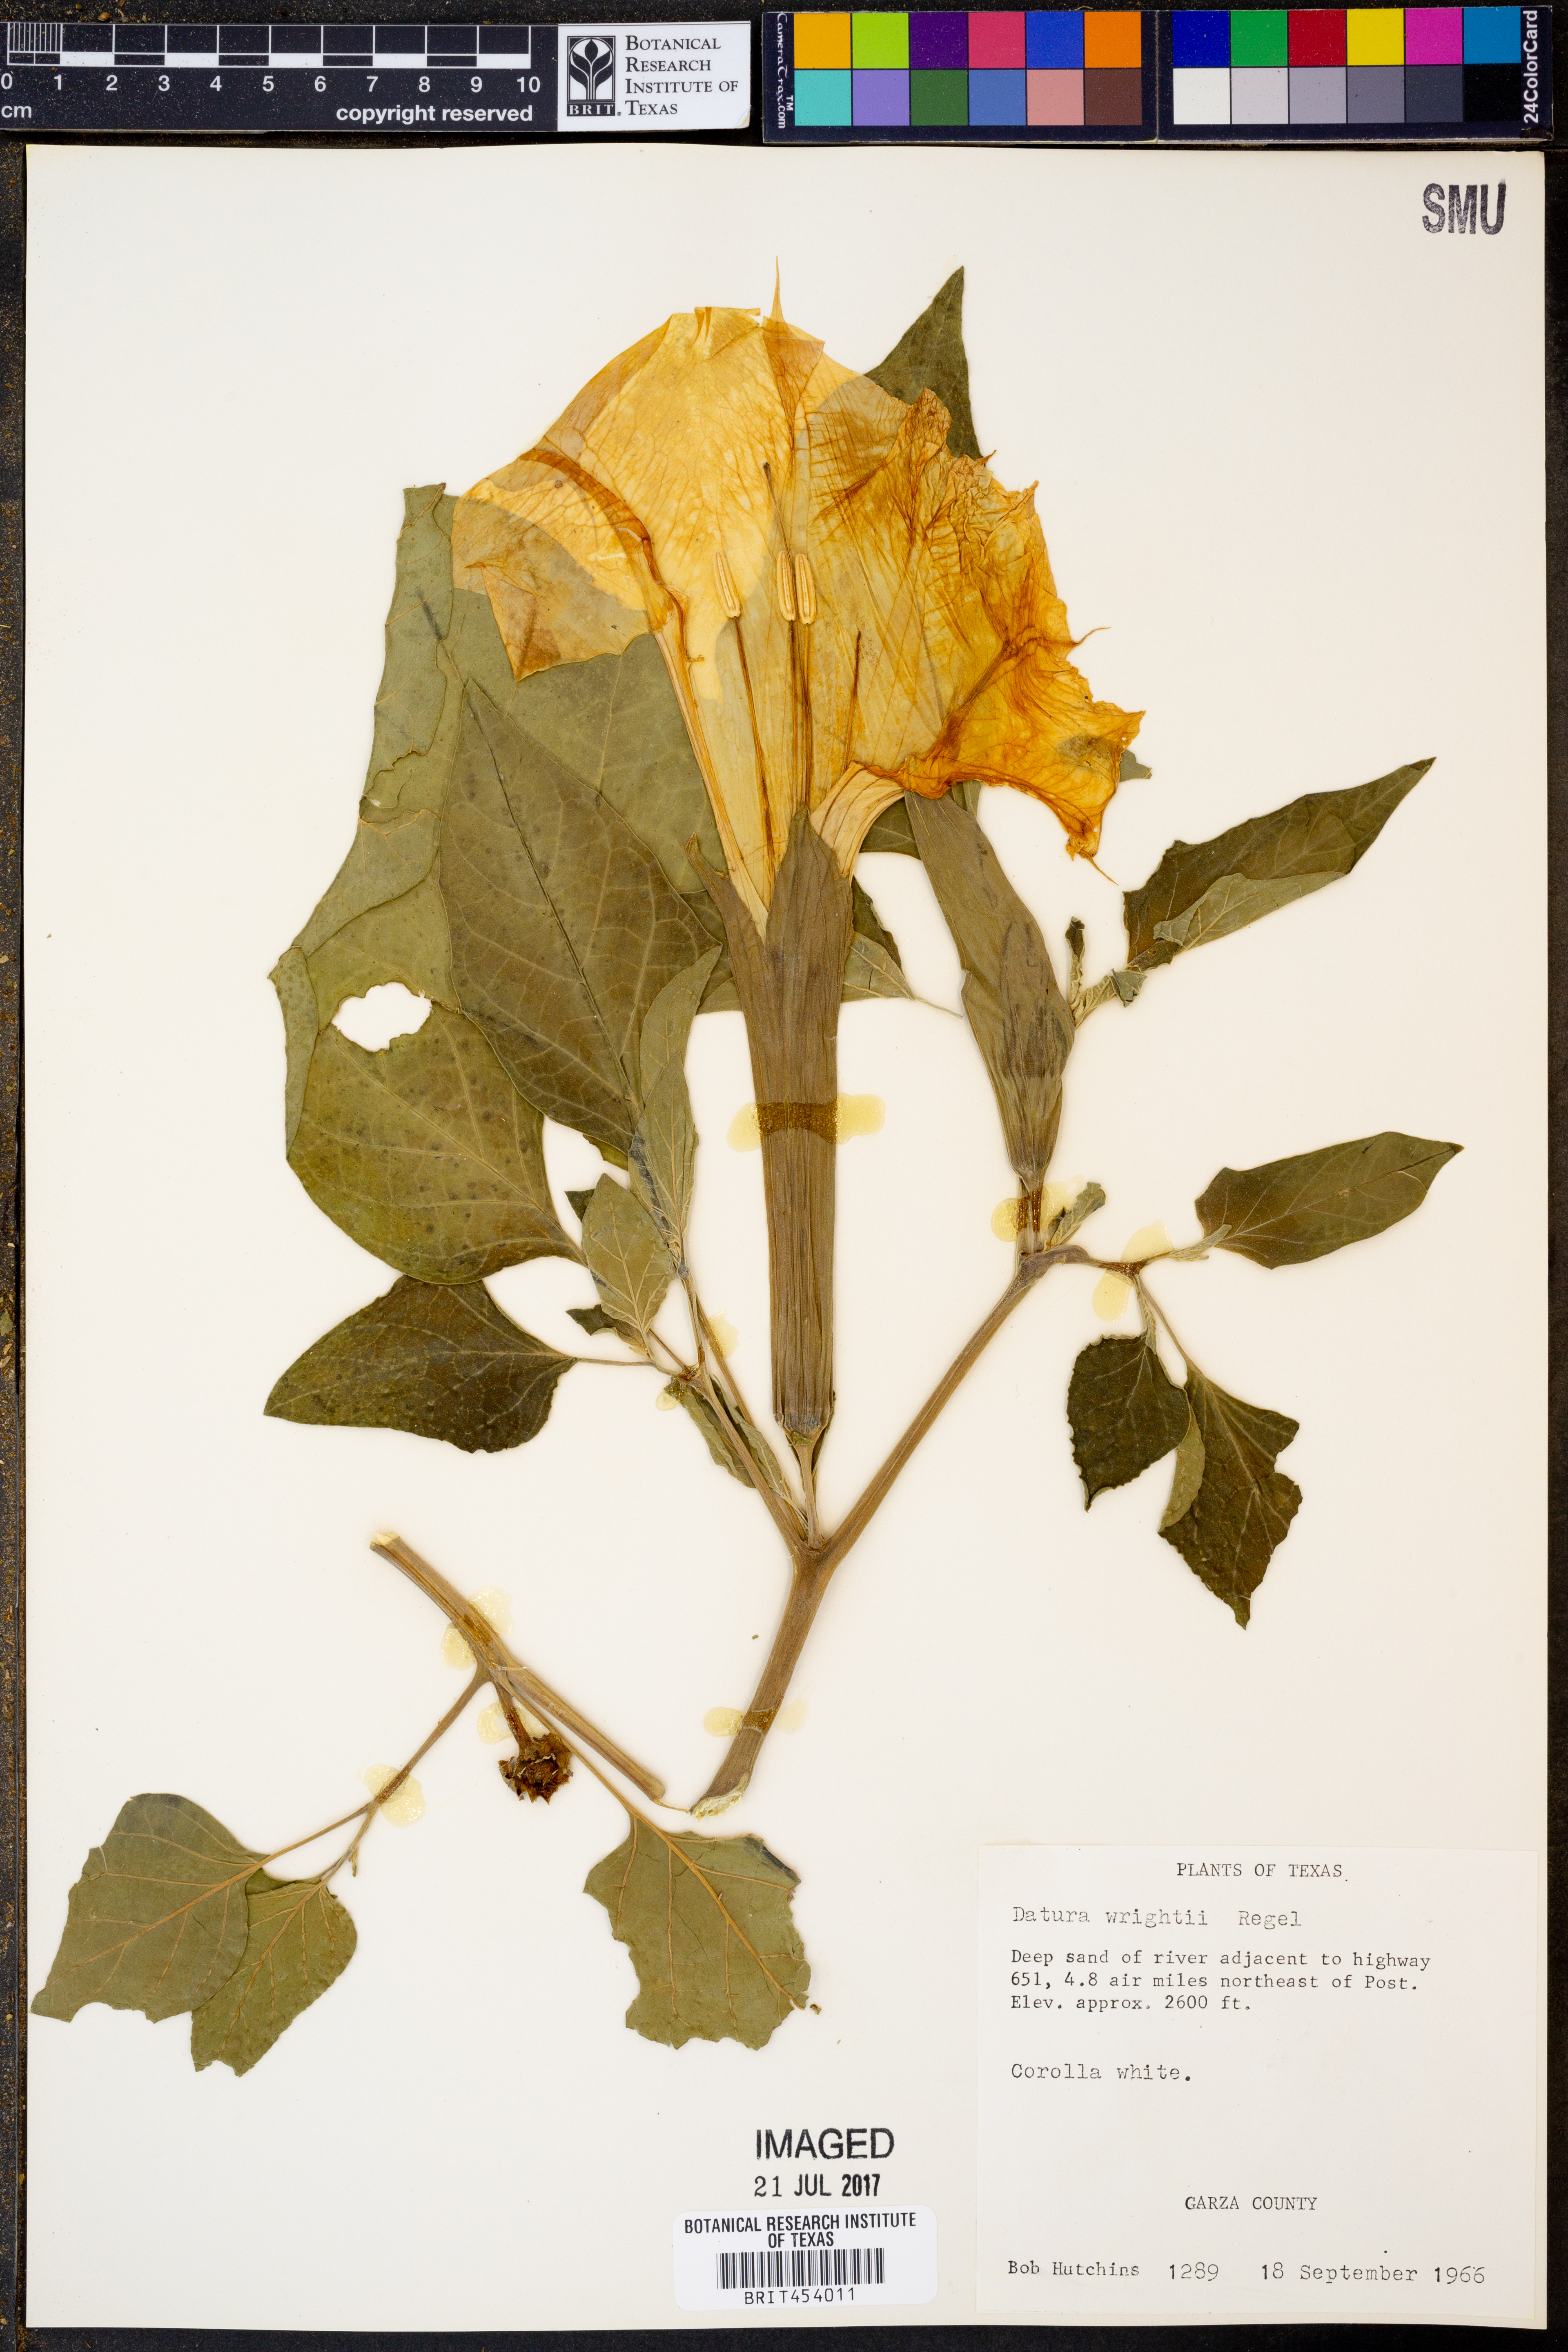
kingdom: Plantae
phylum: Tracheophyta
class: Magnoliopsida
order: Solanales
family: Solanaceae
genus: Datura
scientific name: Datura wrightii
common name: Sacred thorn-apple
